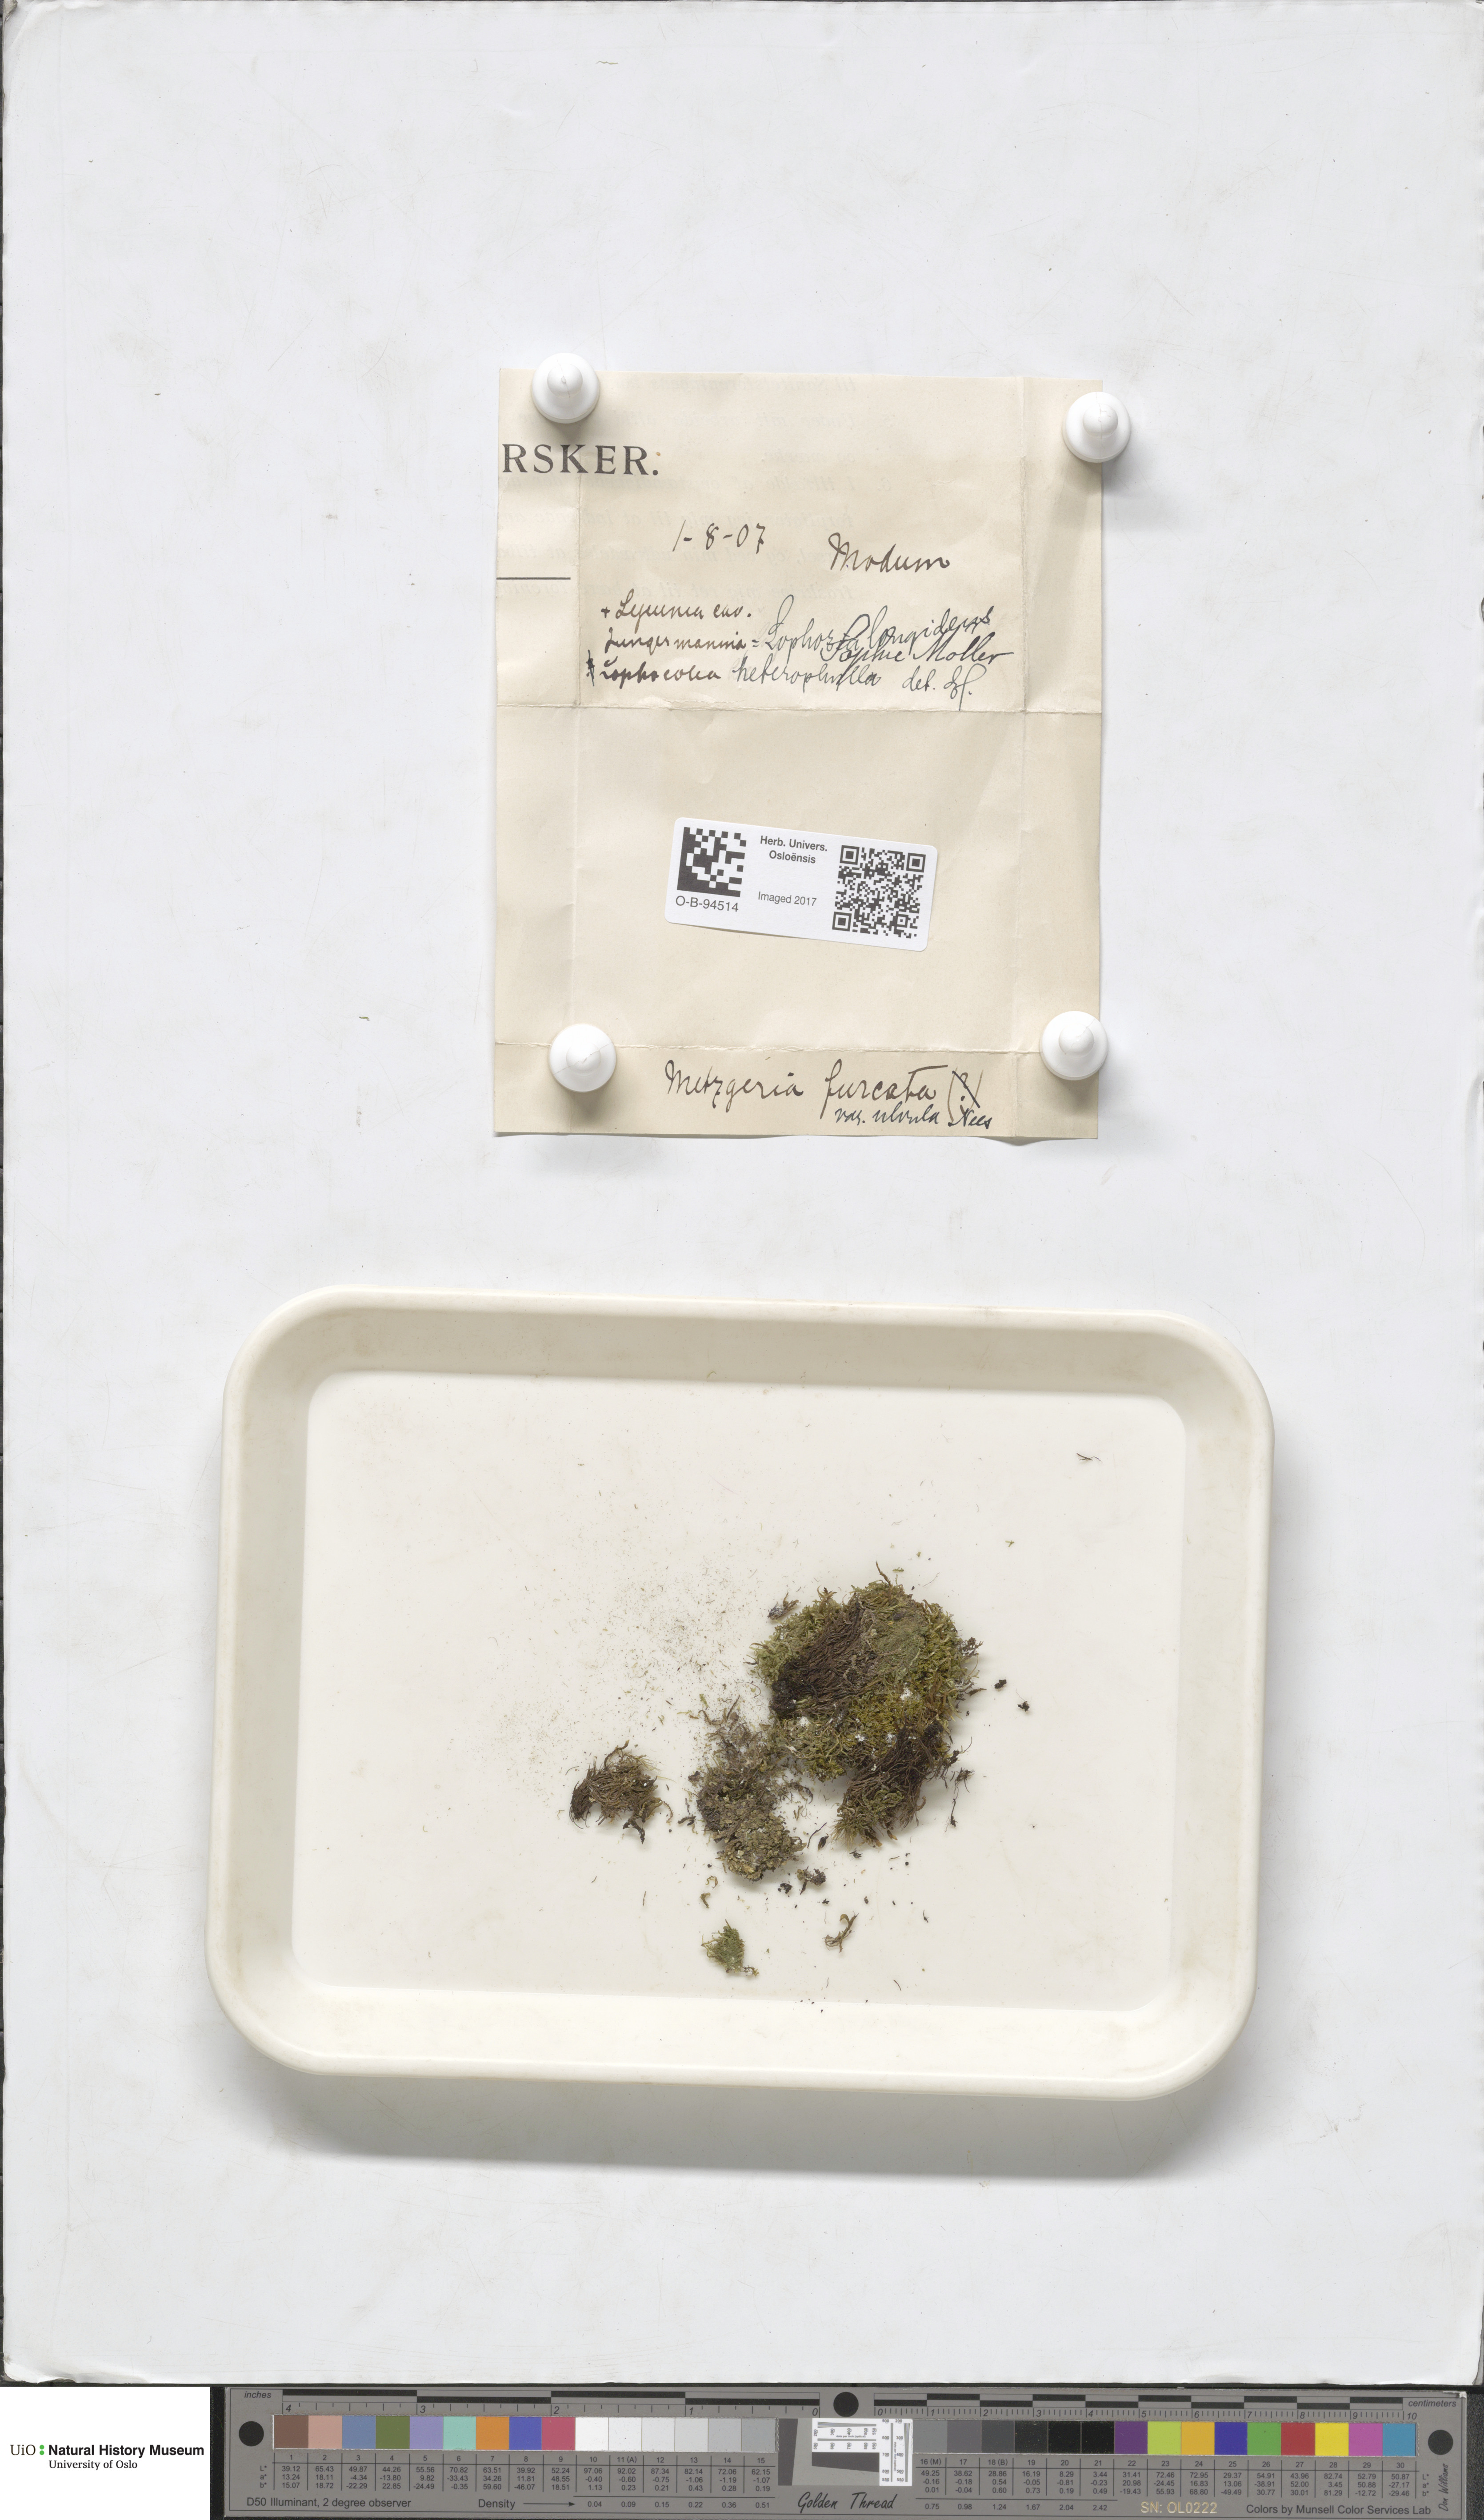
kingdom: Plantae
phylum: Marchantiophyta
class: Jungermanniopsida
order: Metzgeriales
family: Metzgeriaceae
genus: Metzgeria
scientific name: Metzgeria furcata
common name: Forked veilwort
